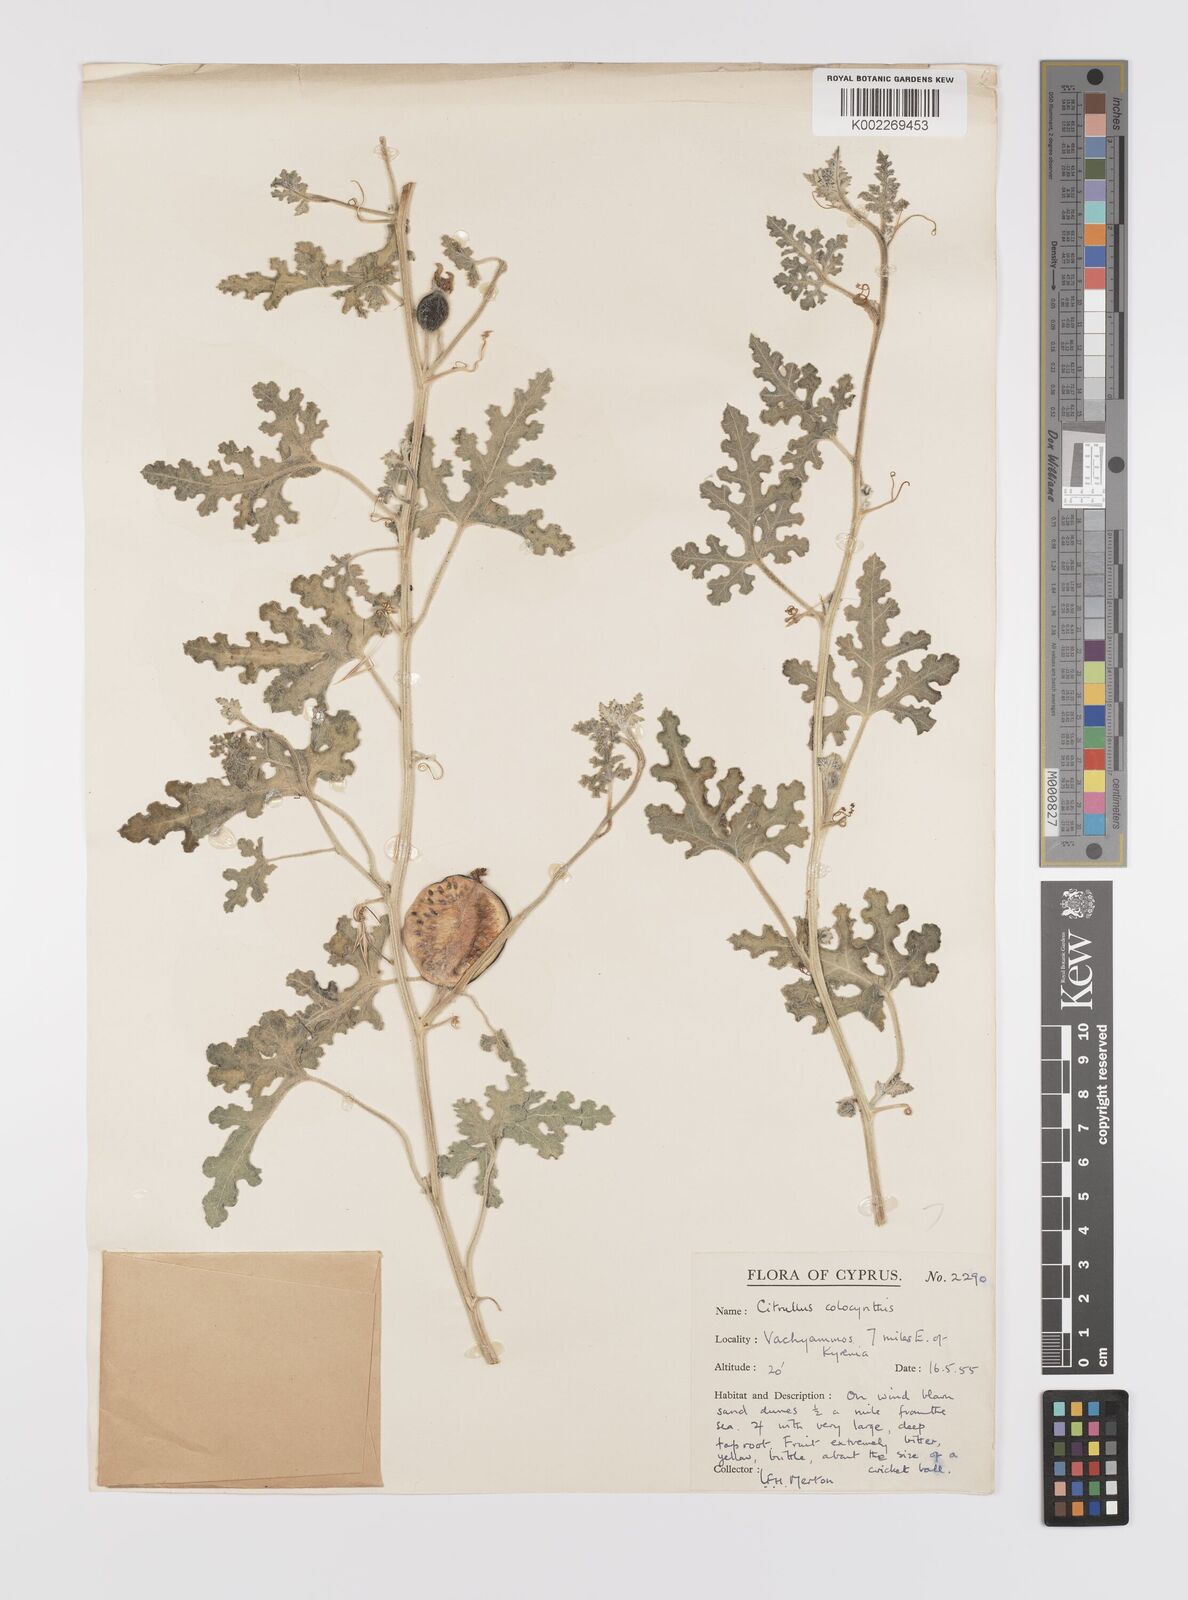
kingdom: Plantae
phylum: Tracheophyta
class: Magnoliopsida
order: Cucurbitales
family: Cucurbitaceae
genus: Citrullus
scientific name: Citrullus colocynthis
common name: Colocynth
